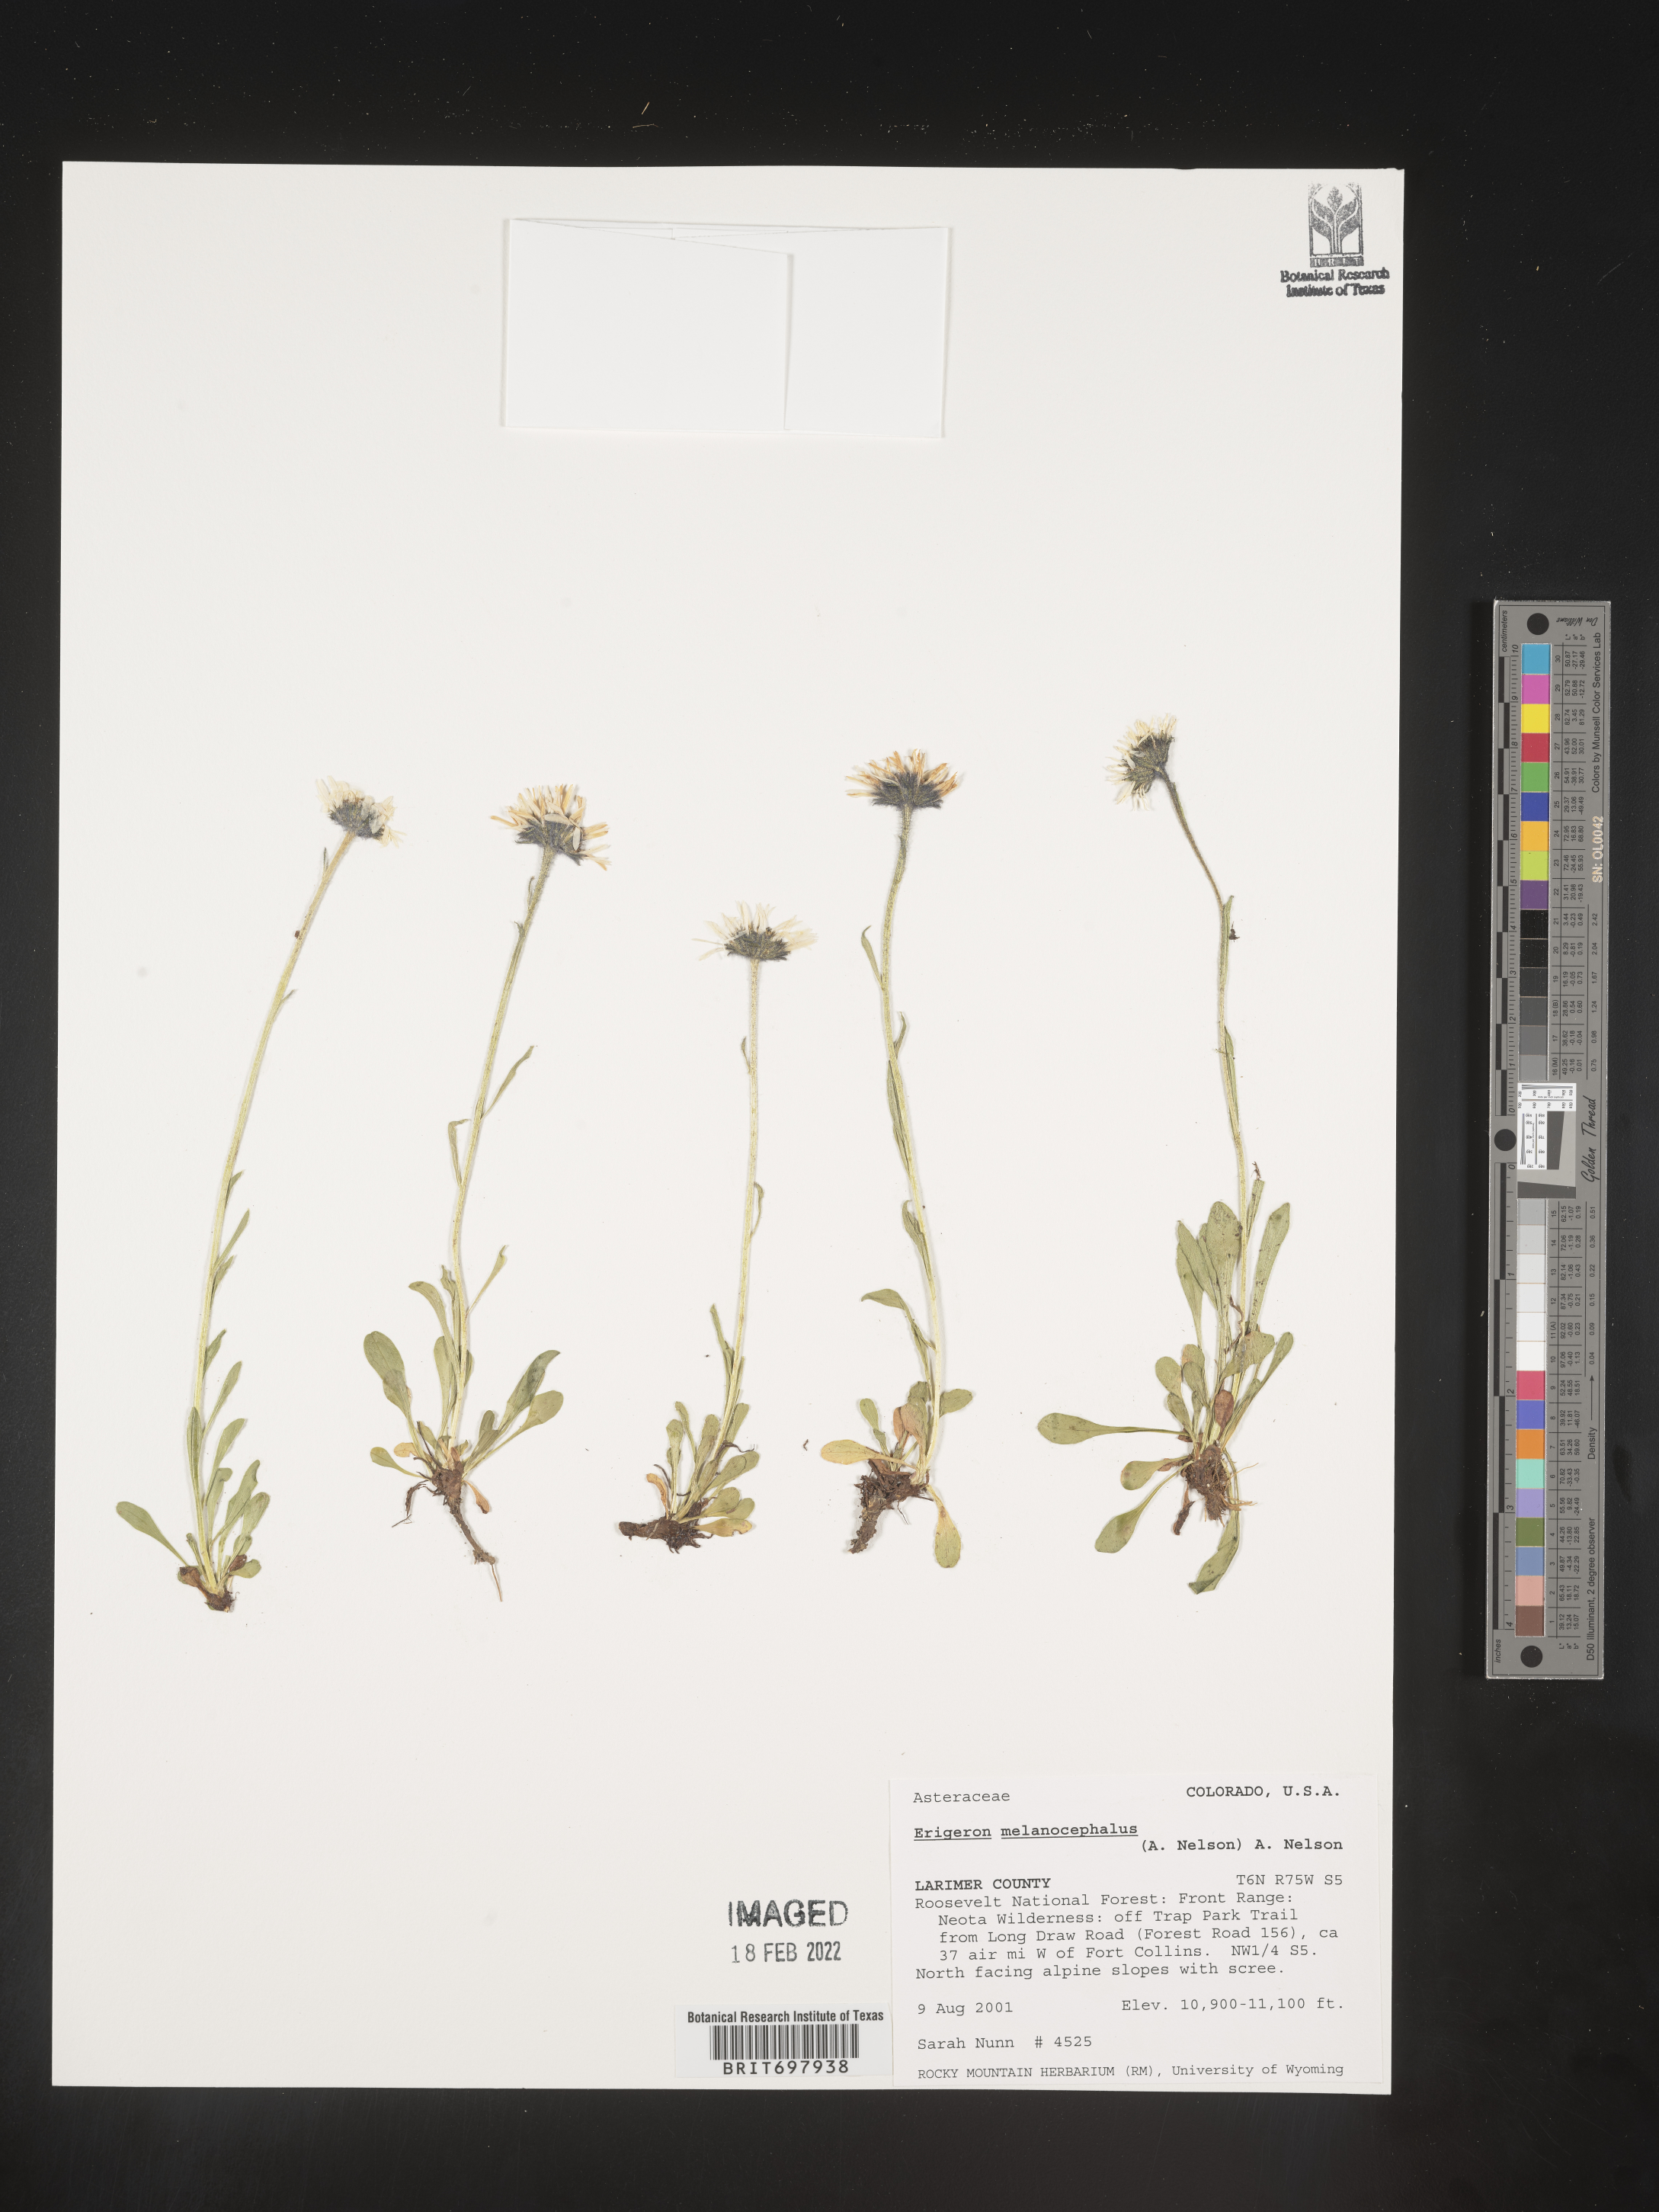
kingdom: Plantae
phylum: Tracheophyta
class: Magnoliopsida
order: Asterales
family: Asteraceae
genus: Erigeron
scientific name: Erigeron melanocephalus
